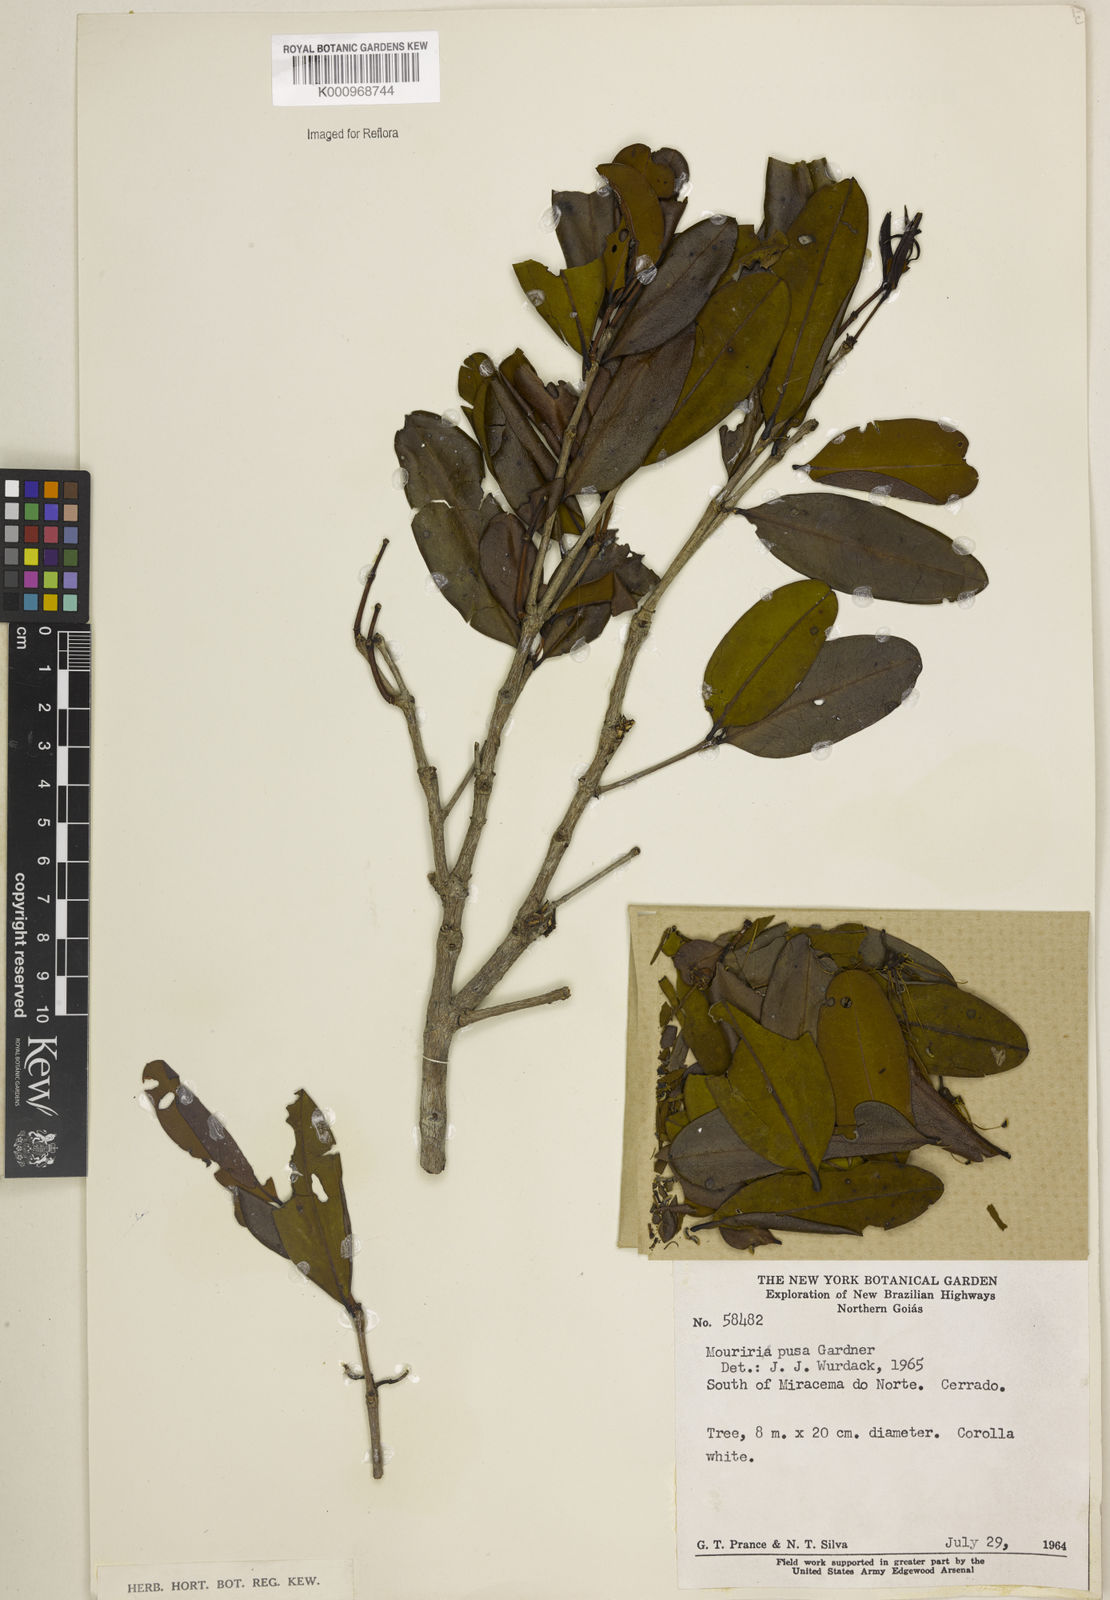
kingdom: Plantae
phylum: Tracheophyta
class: Magnoliopsida
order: Myrtales
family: Melastomataceae
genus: Mouriri
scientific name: Mouriri pusa
